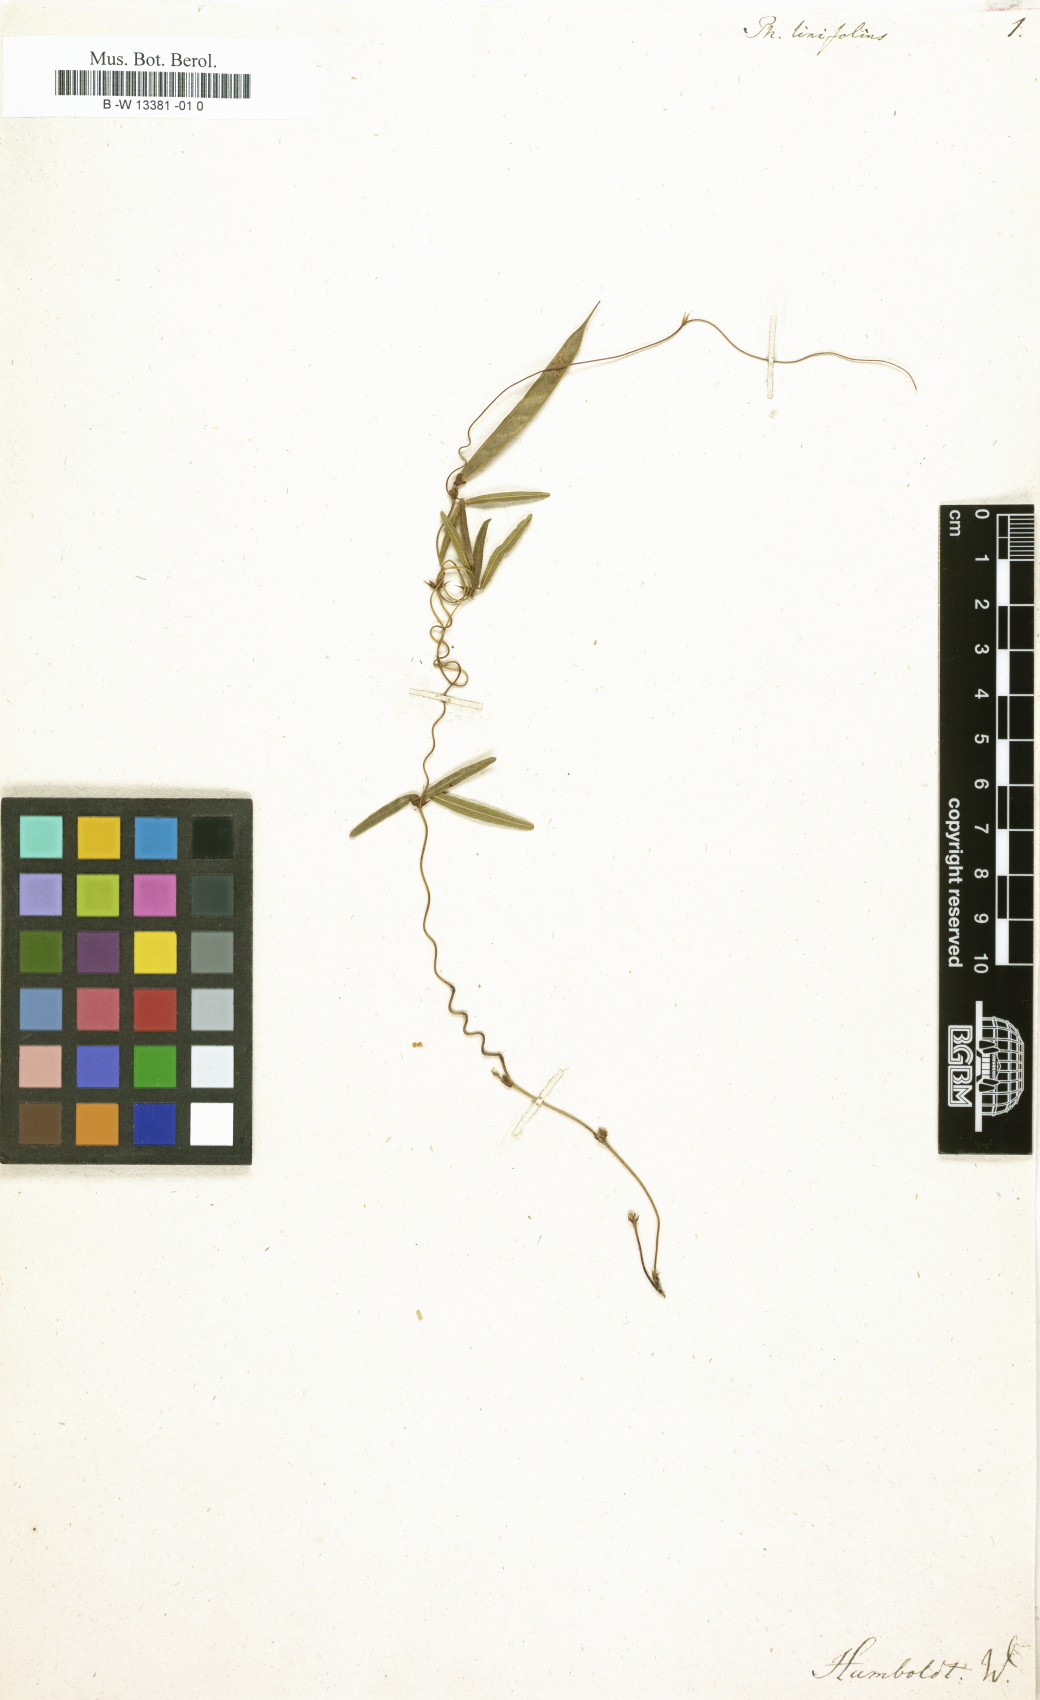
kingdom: Plantae
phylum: Tracheophyta
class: Magnoliopsida
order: Fabales
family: Fabaceae
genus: Phaseolus
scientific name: Phaseolus
